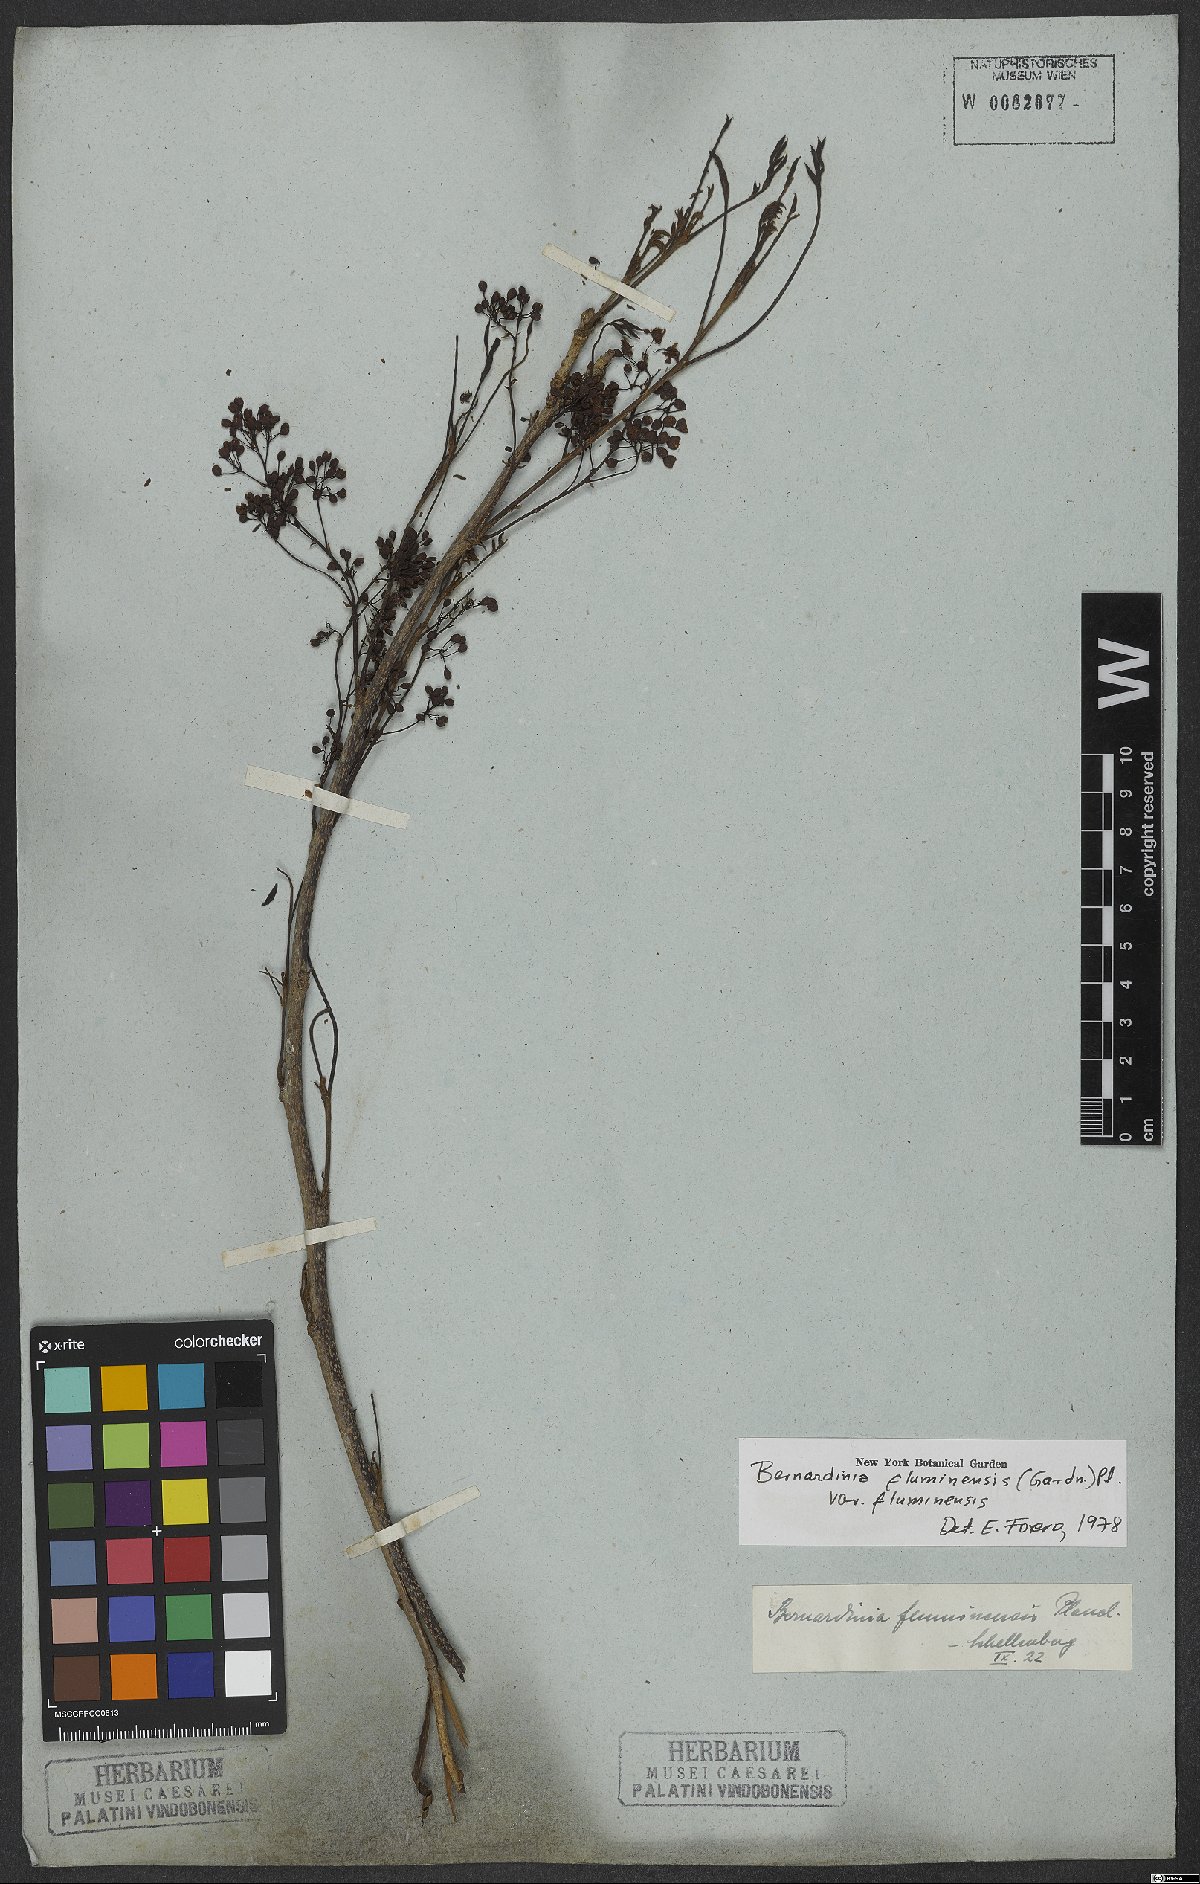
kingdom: Plantae
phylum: Tracheophyta
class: Magnoliopsida
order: Oxalidales
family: Connaraceae
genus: Rourea
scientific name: Rourea fluminensis
